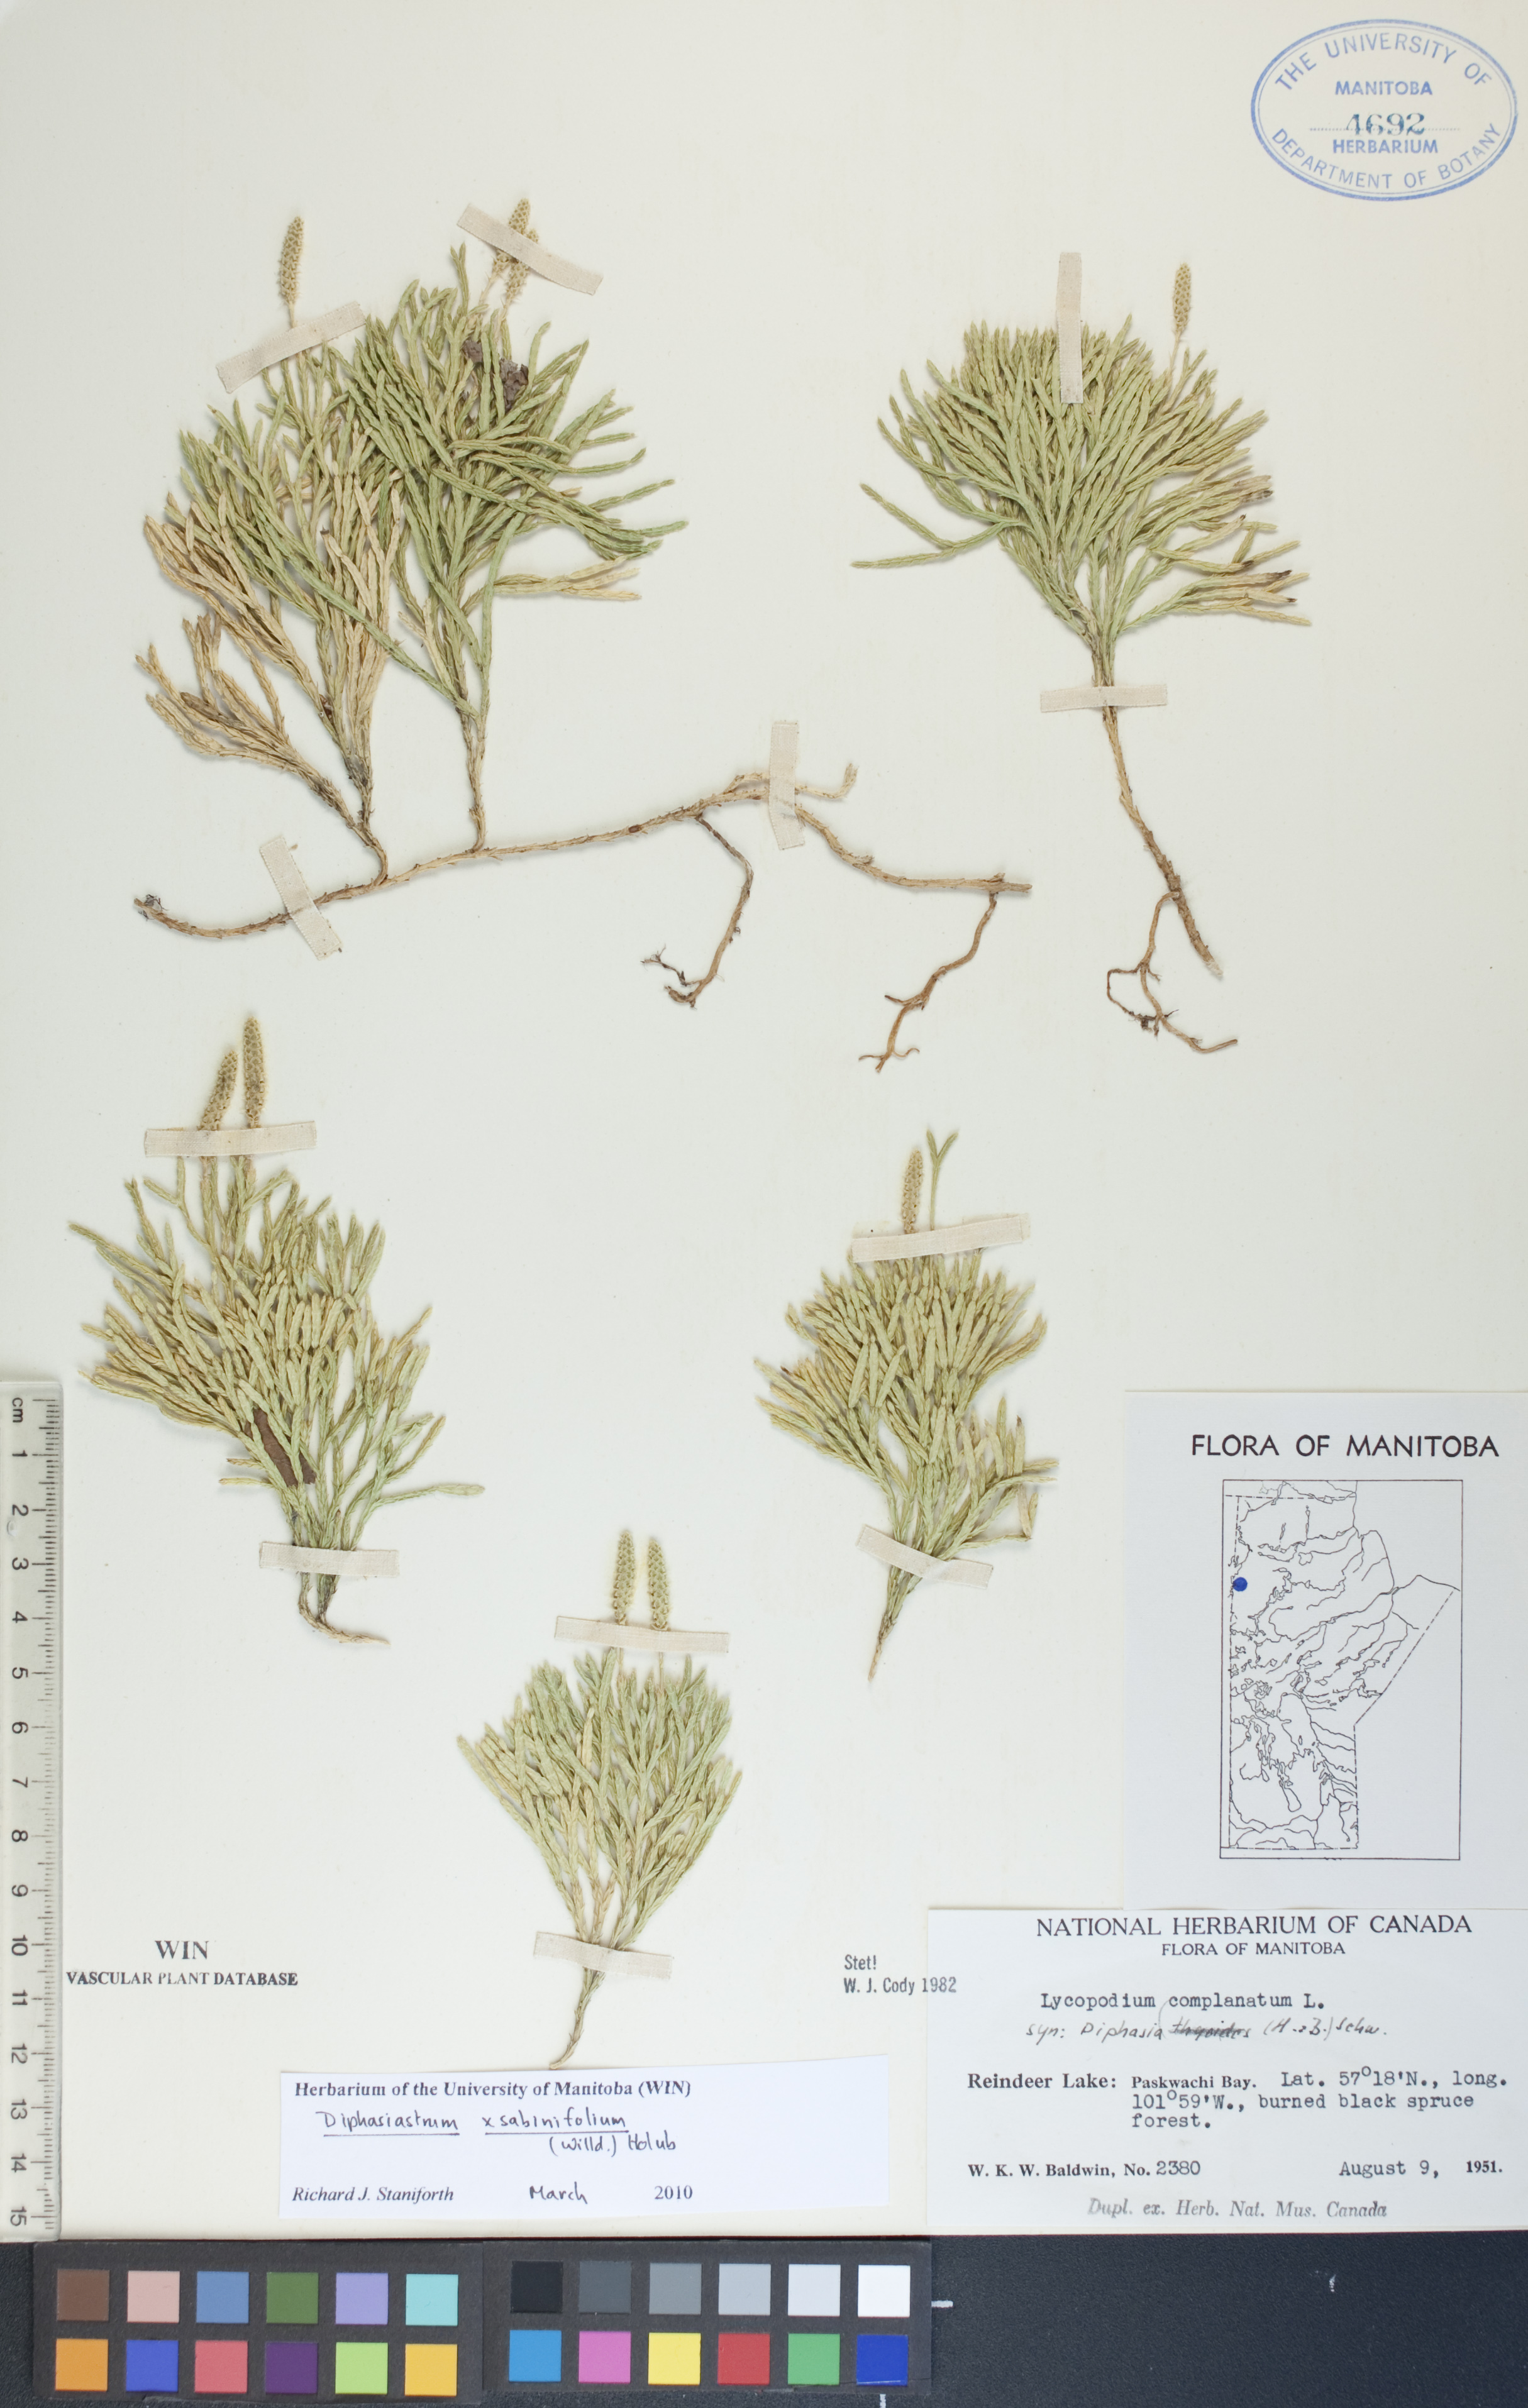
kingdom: Plantae
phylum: Tracheophyta
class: Lycopodiopsida
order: Lycopodiales
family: Lycopodiaceae
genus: Diphasiastrum
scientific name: Diphasiastrum sabinifolium
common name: Juniper clubmoss
